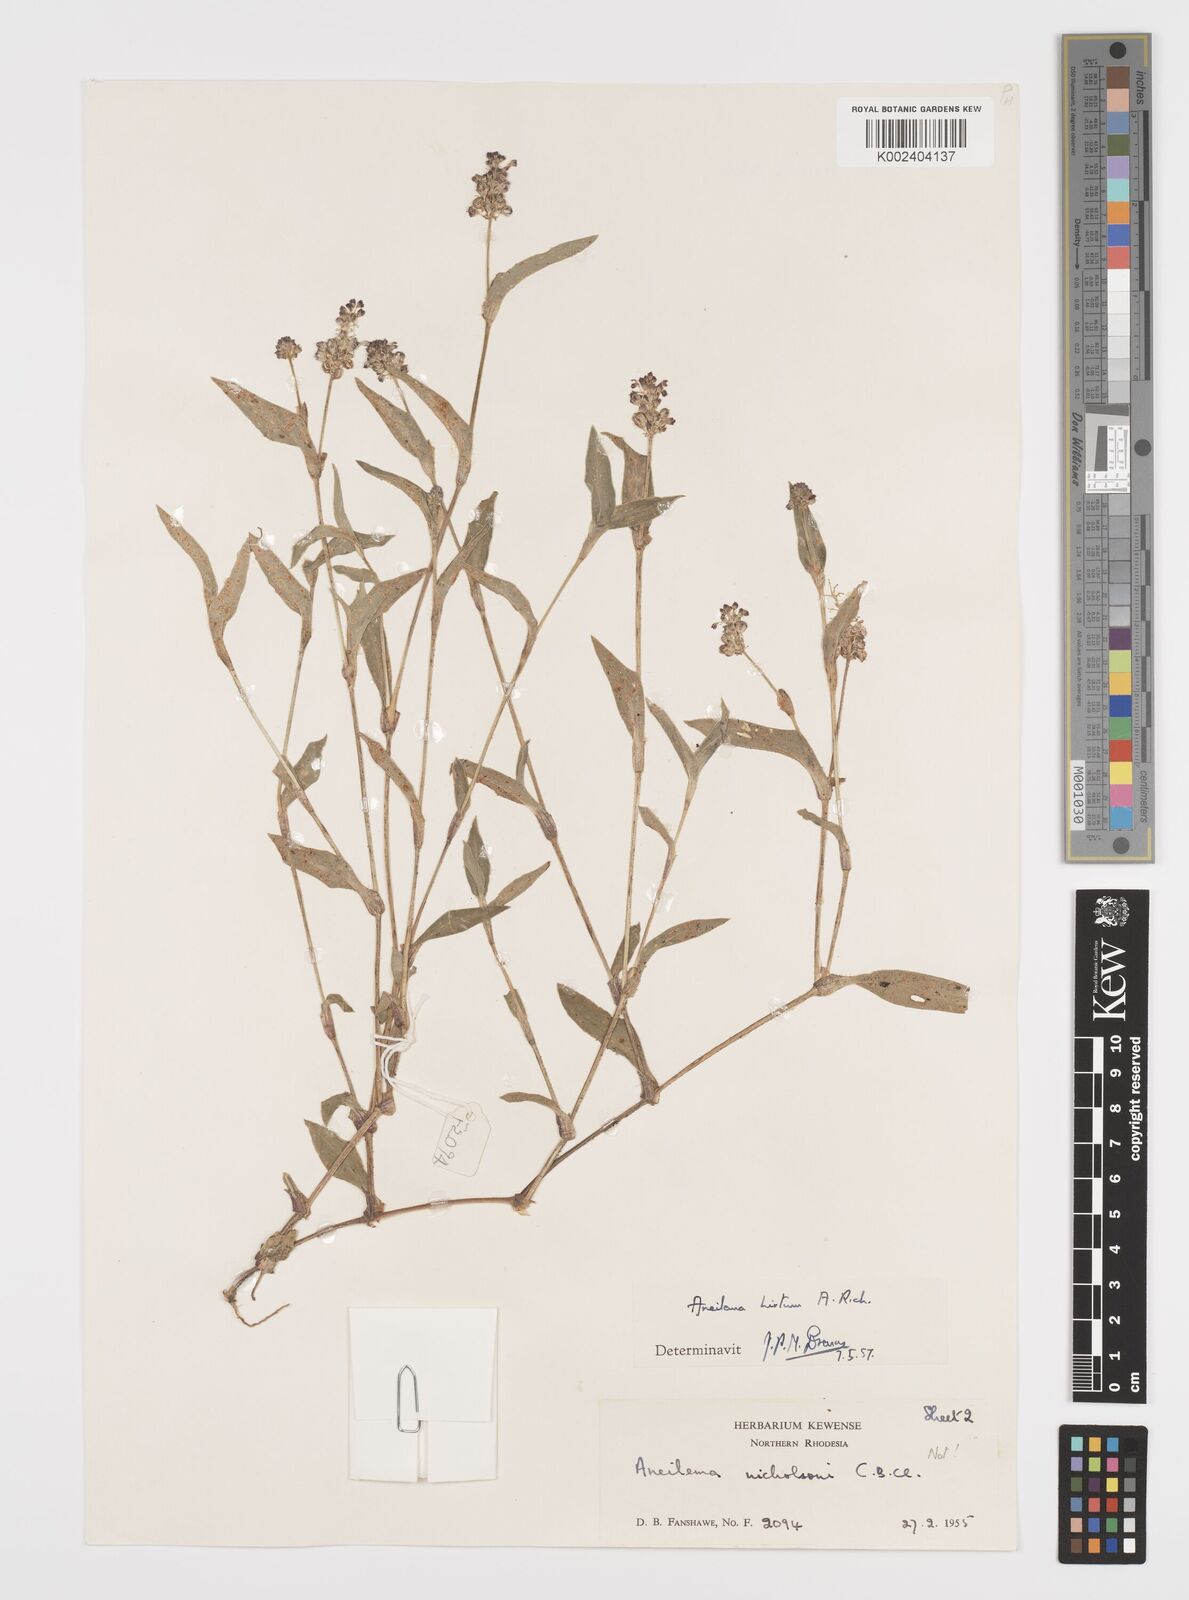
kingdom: Plantae
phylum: Tracheophyta
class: Liliopsida
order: Commelinales
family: Commelinaceae
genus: Aneilema
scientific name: Aneilema hirtum
